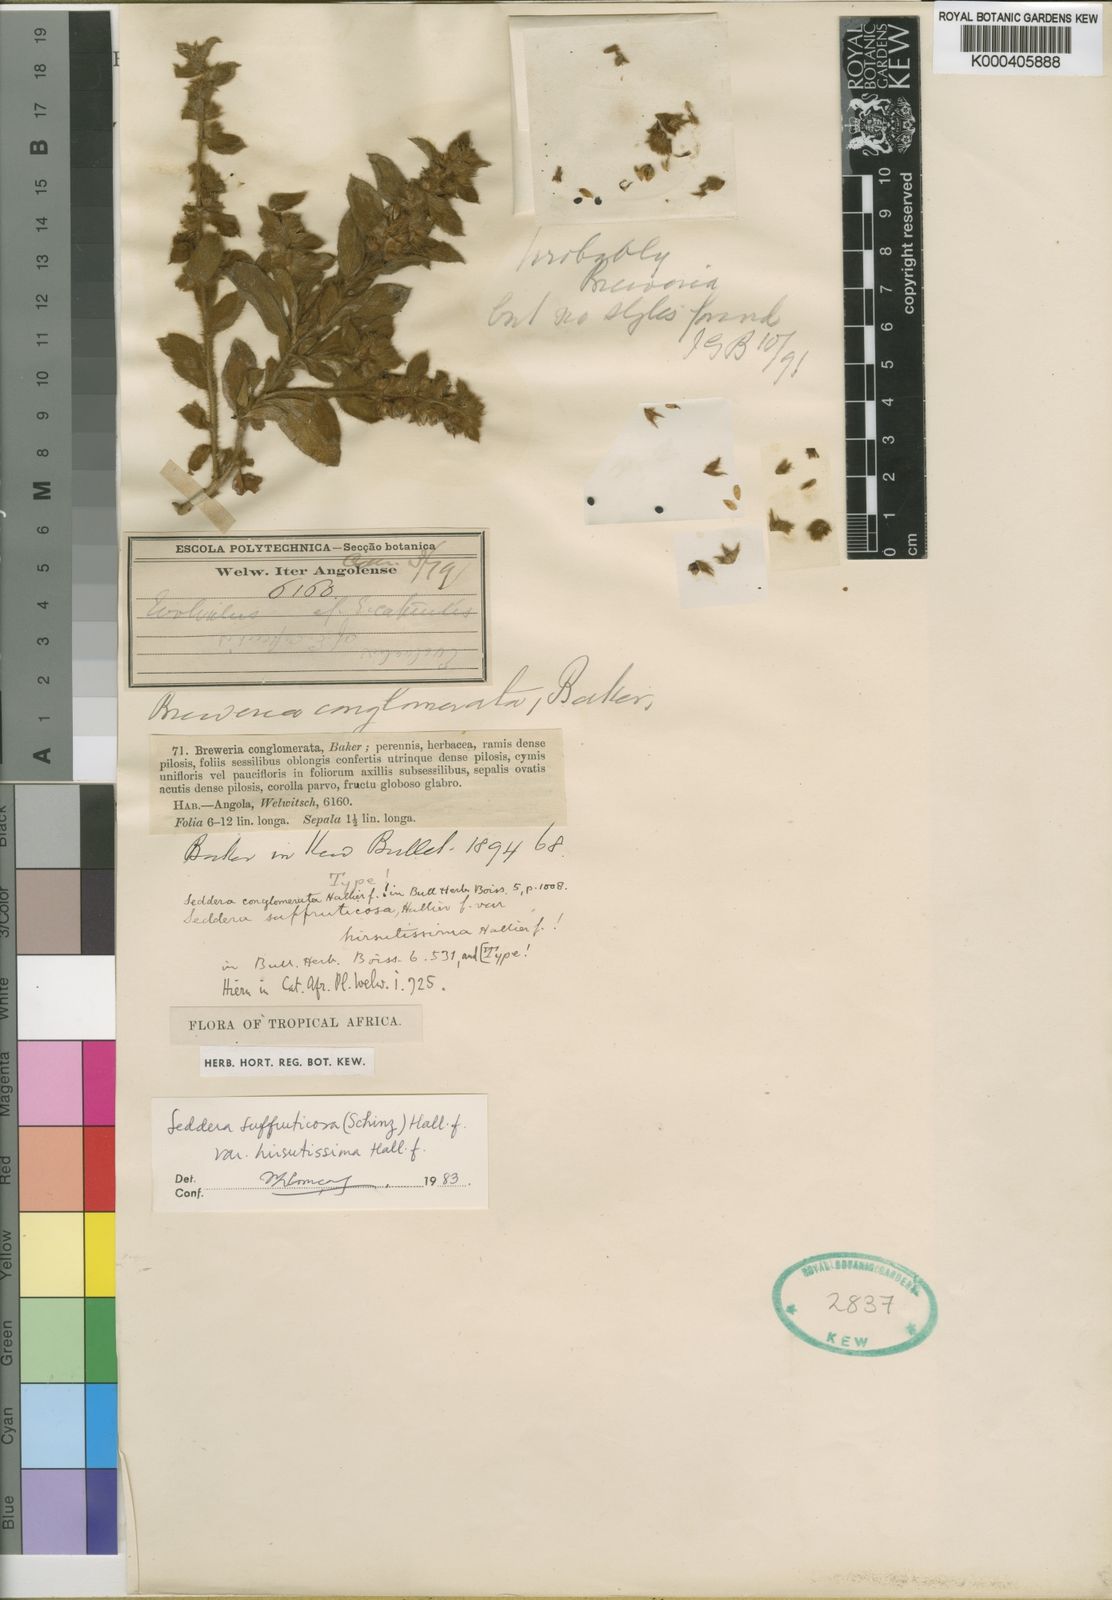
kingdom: Plantae
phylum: Tracheophyta
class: Magnoliopsida
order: Solanales
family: Convolvulaceae
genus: Seddera
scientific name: Seddera suffruticosa
